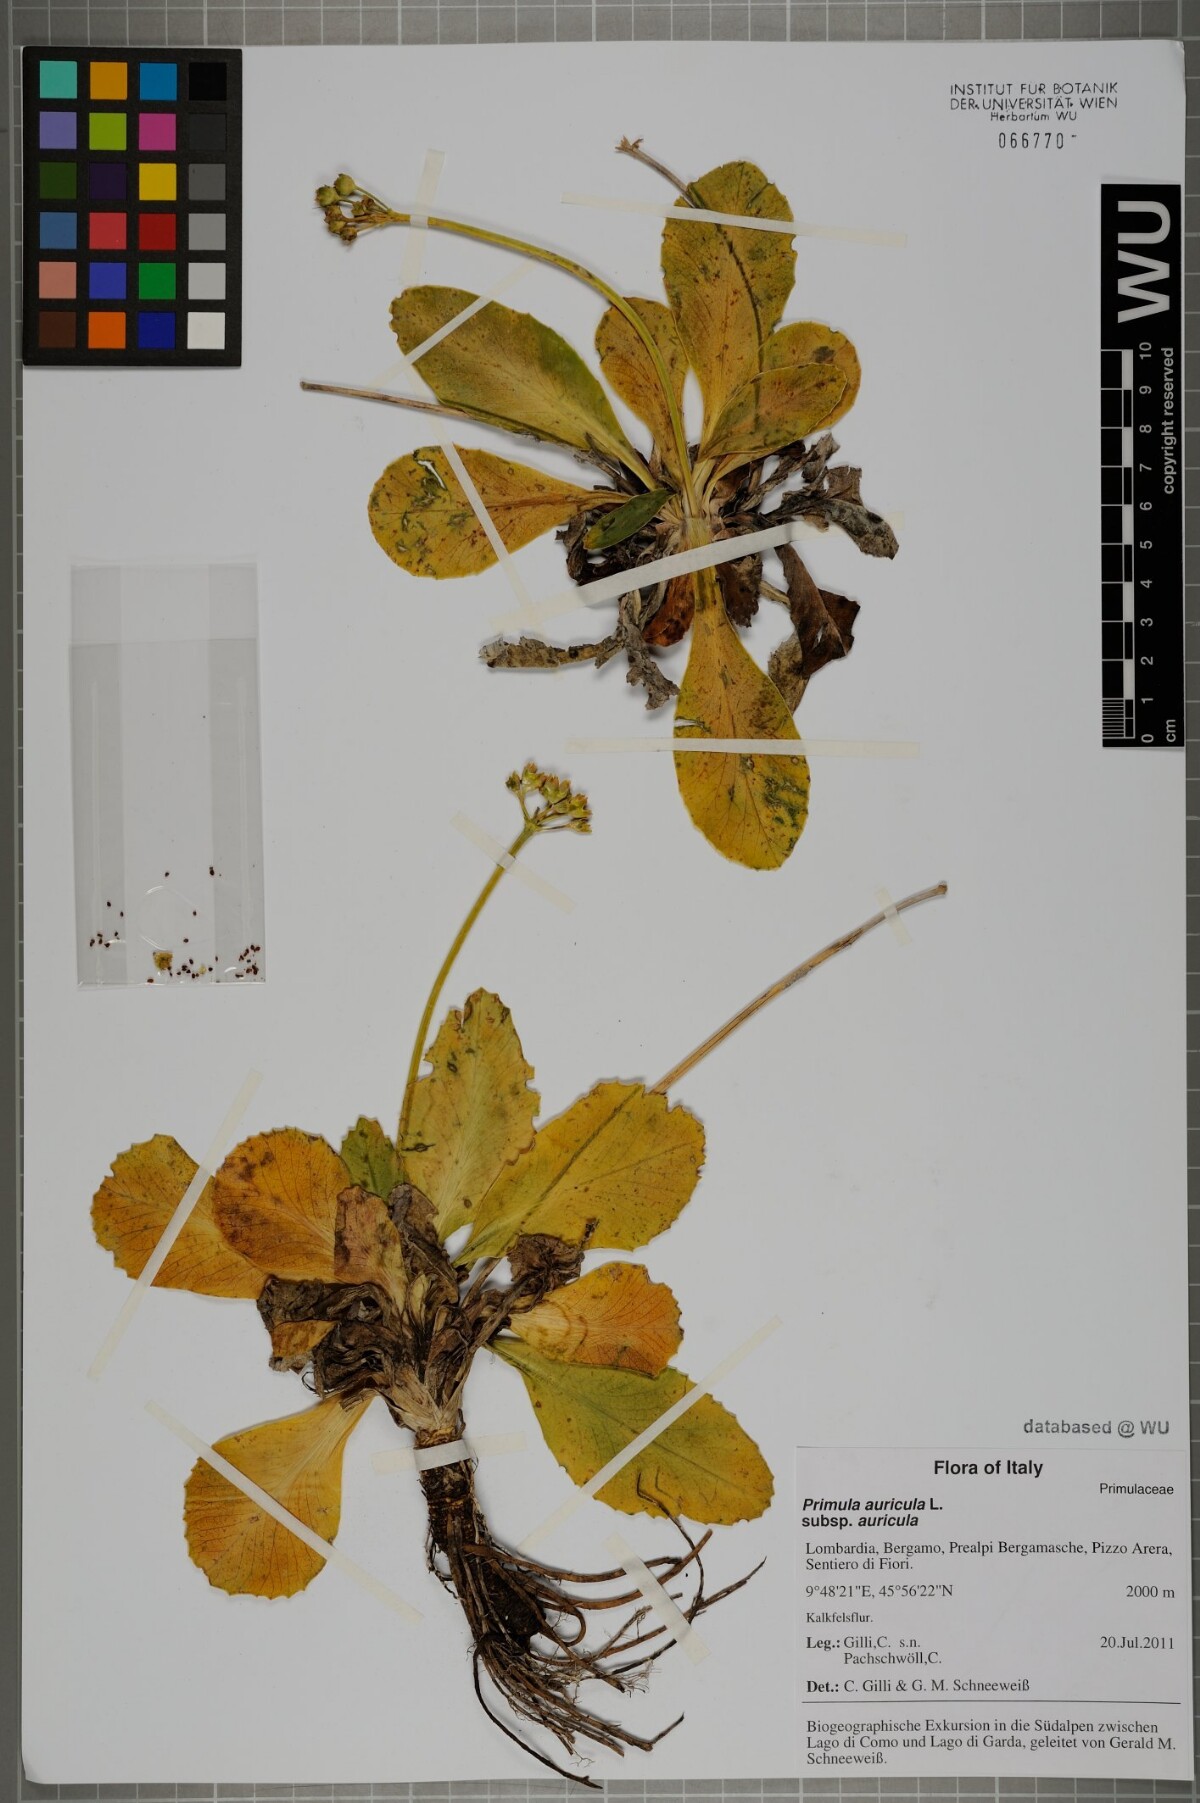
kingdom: Plantae
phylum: Tracheophyta
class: Magnoliopsida
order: Ericales
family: Primulaceae
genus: Primula
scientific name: Primula auricula
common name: Auricula
